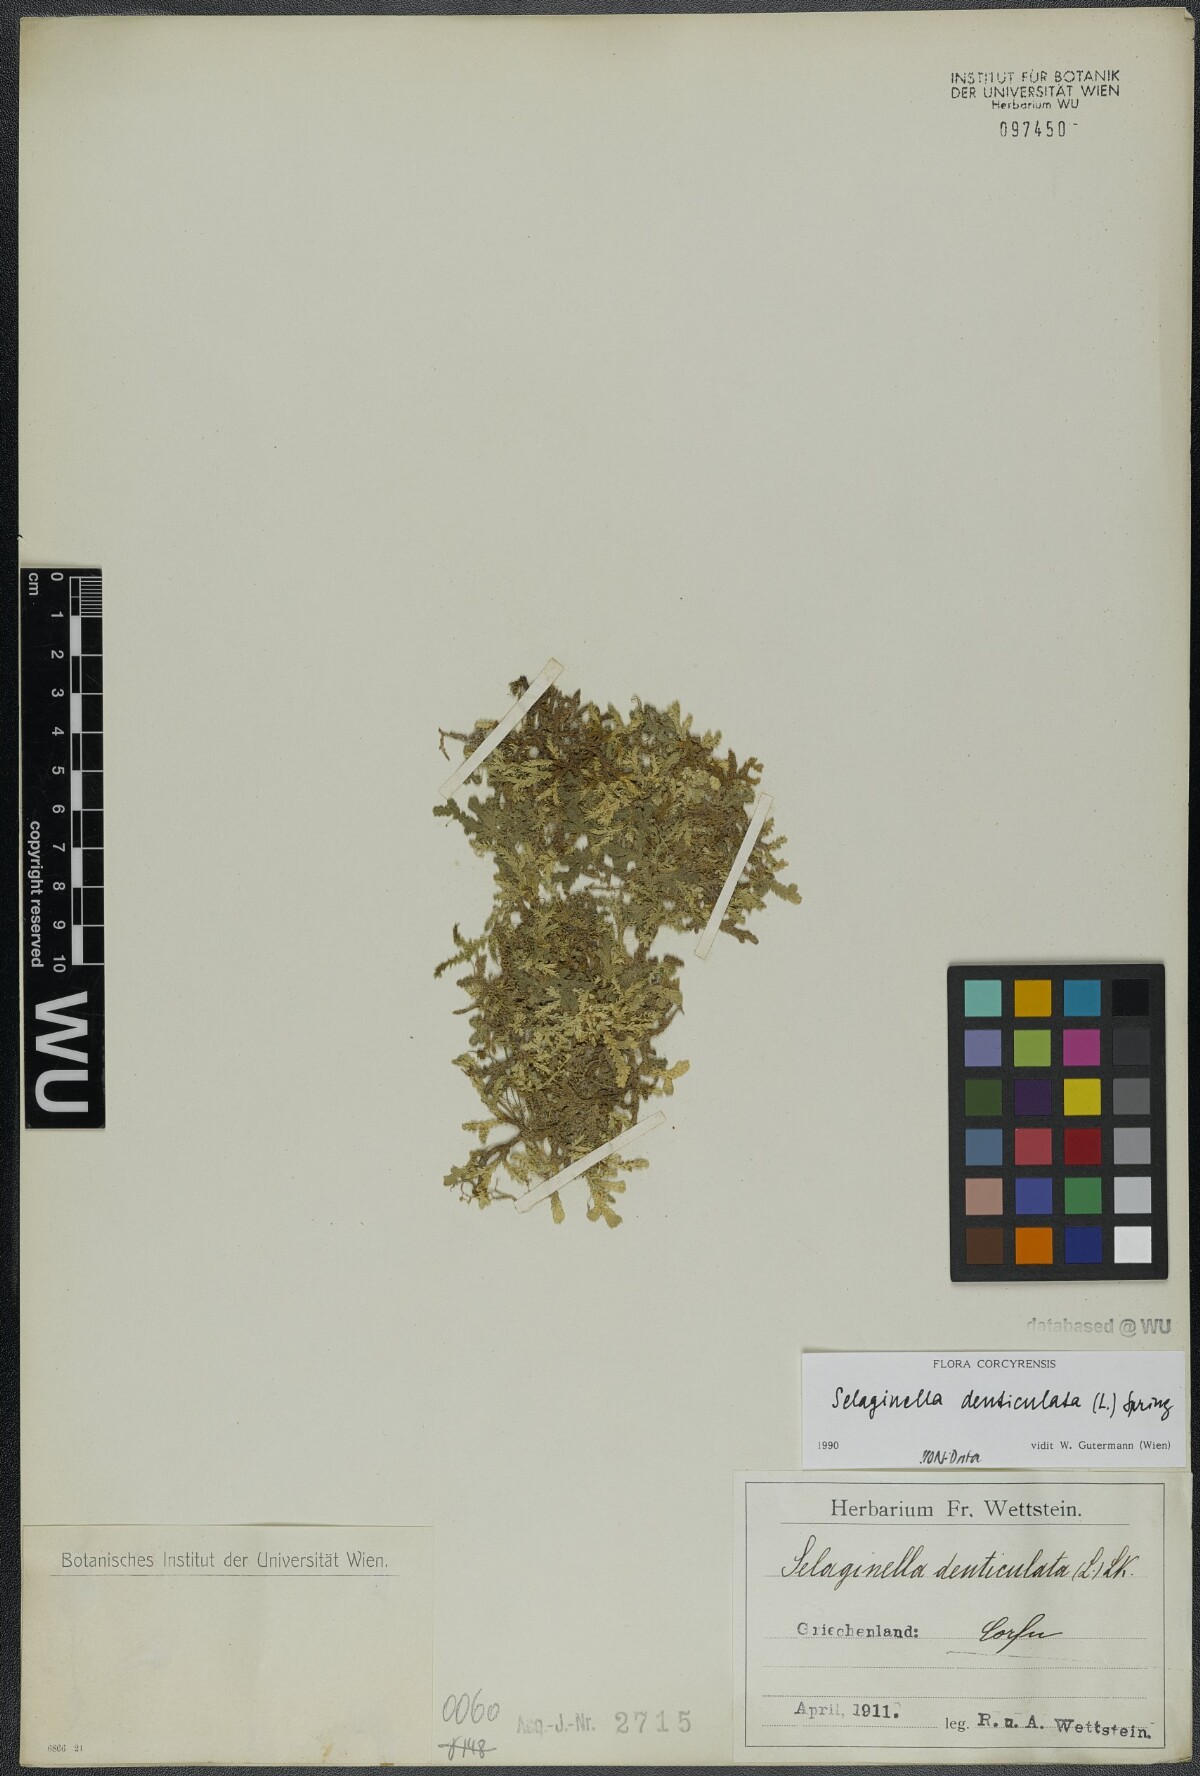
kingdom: Plantae
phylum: Tracheophyta
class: Lycopodiopsida
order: Selaginellales
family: Selaginellaceae
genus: Selaginella
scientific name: Selaginella denticulata
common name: Toothed-leaved clubmoss
